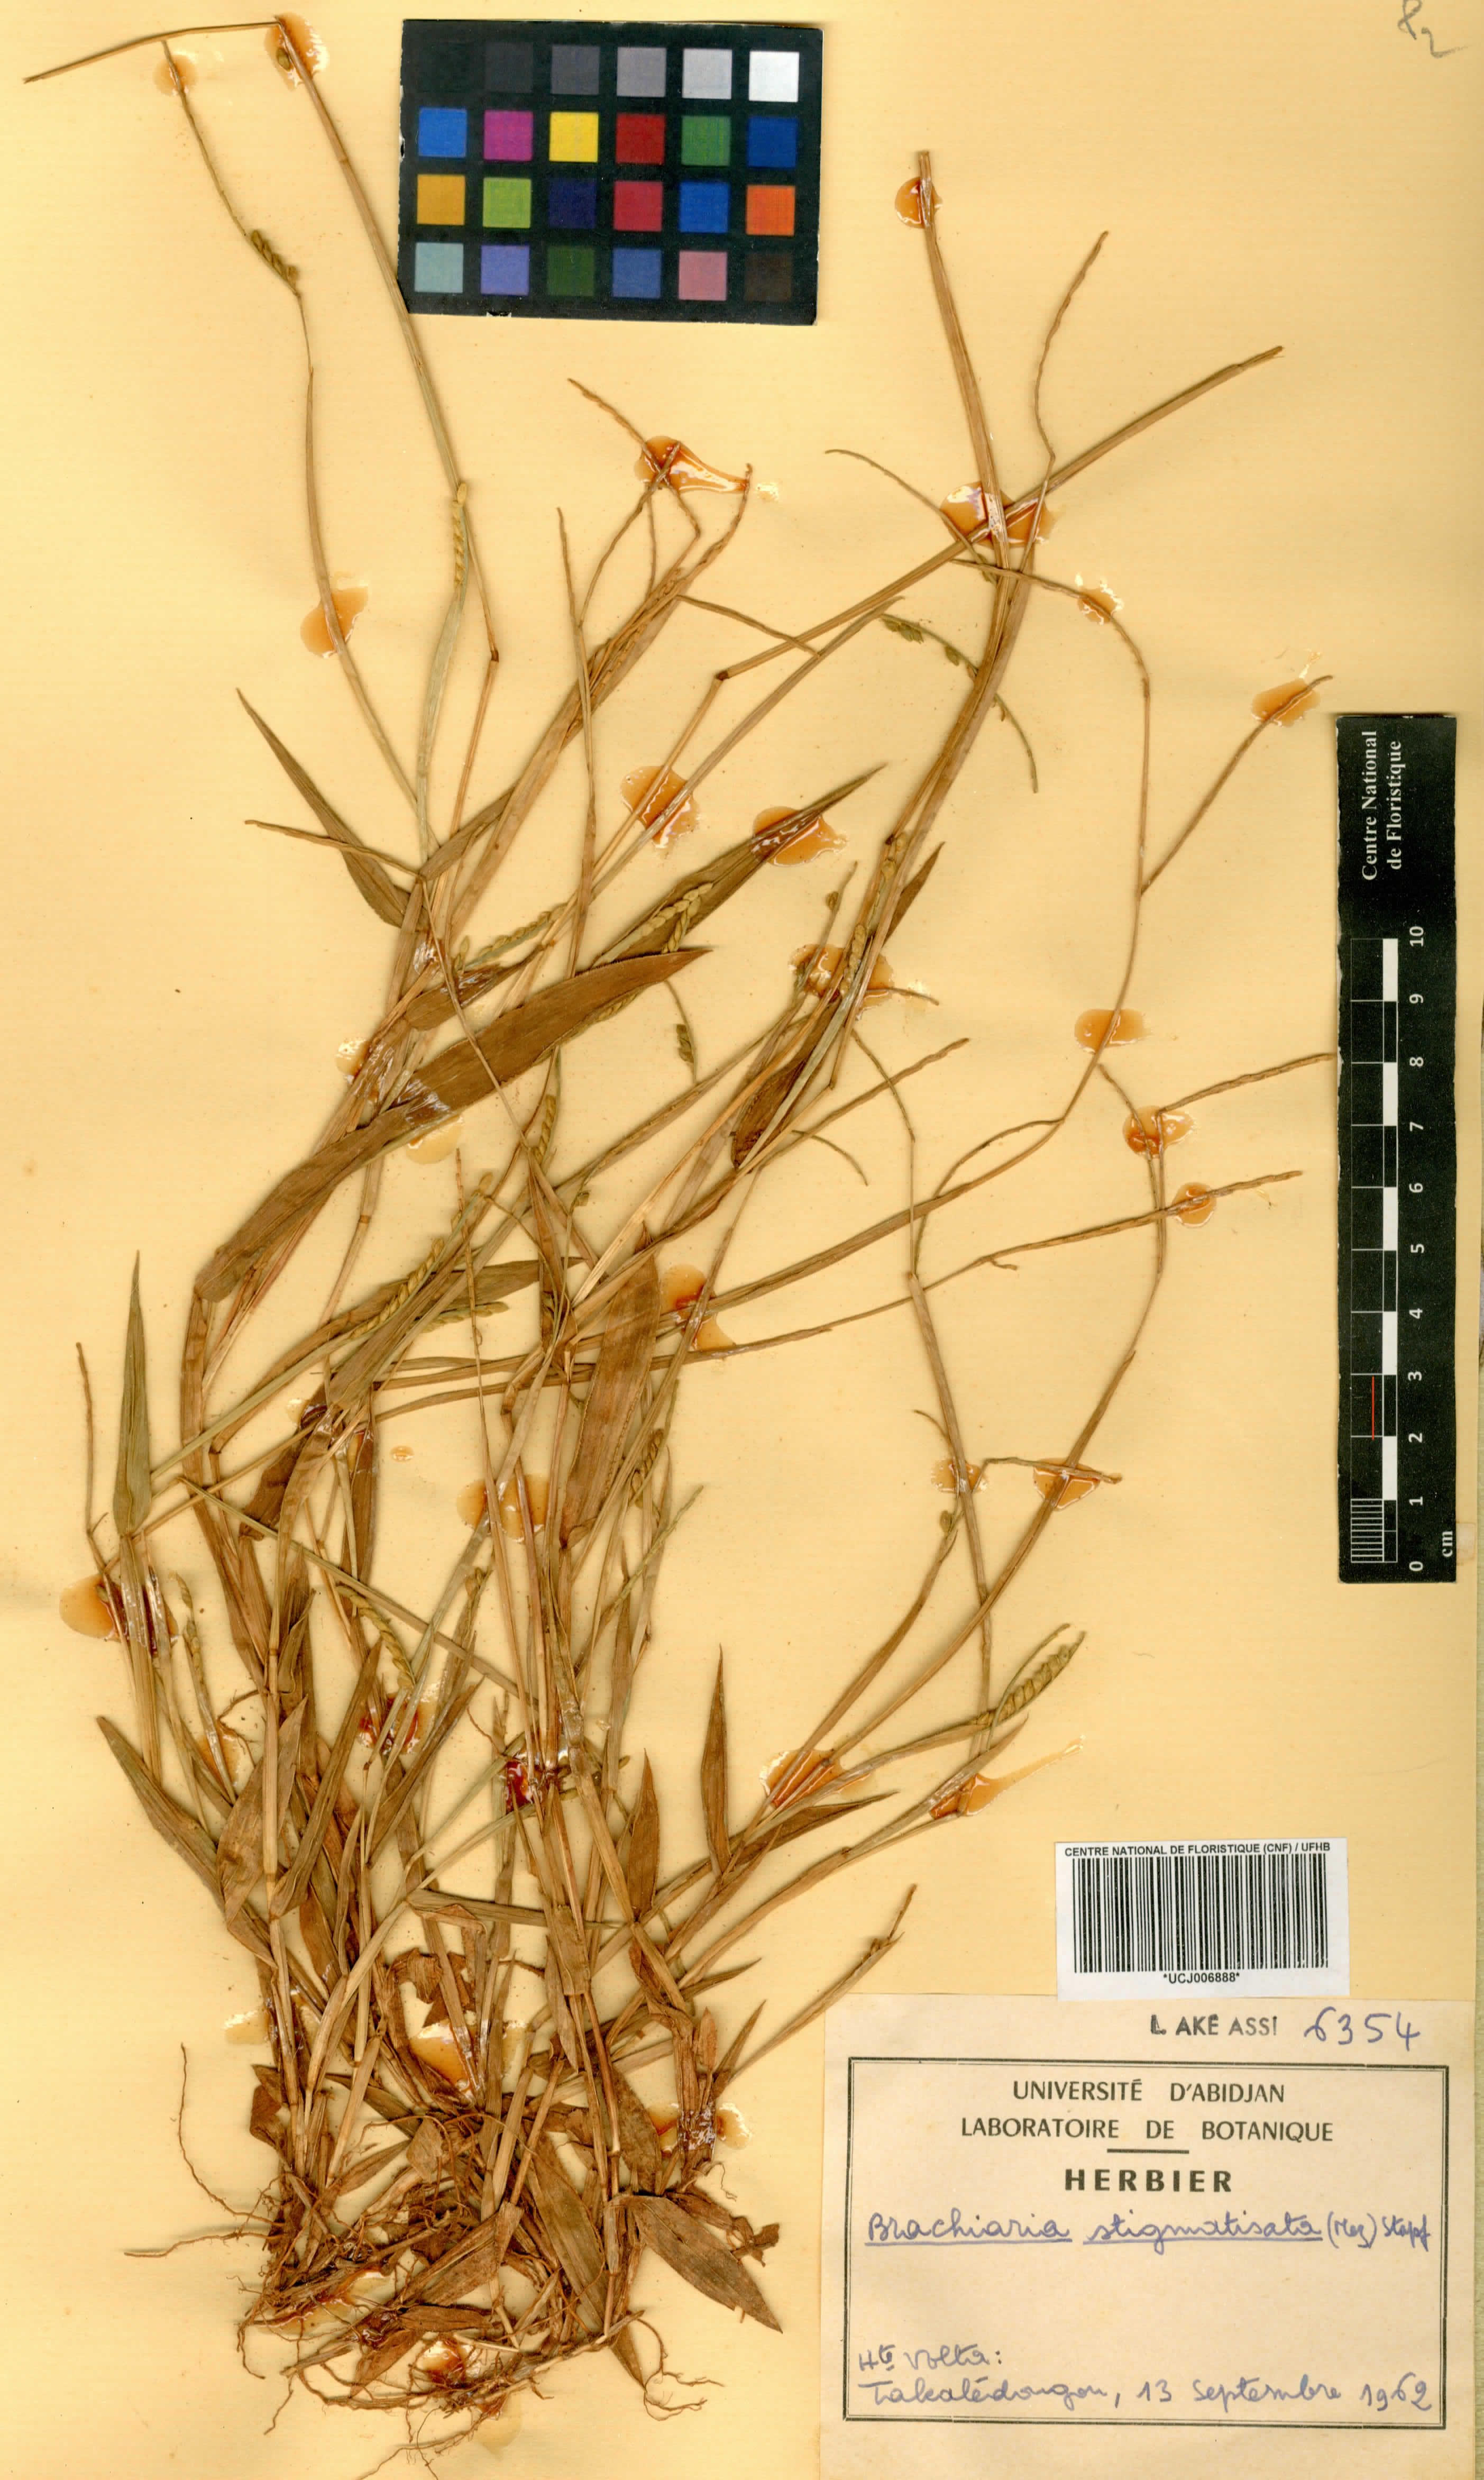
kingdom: Plantae
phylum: Tracheophyta
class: Liliopsida
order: Poales
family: Poaceae
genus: Urochloa
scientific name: Urochloa stigmatisata
